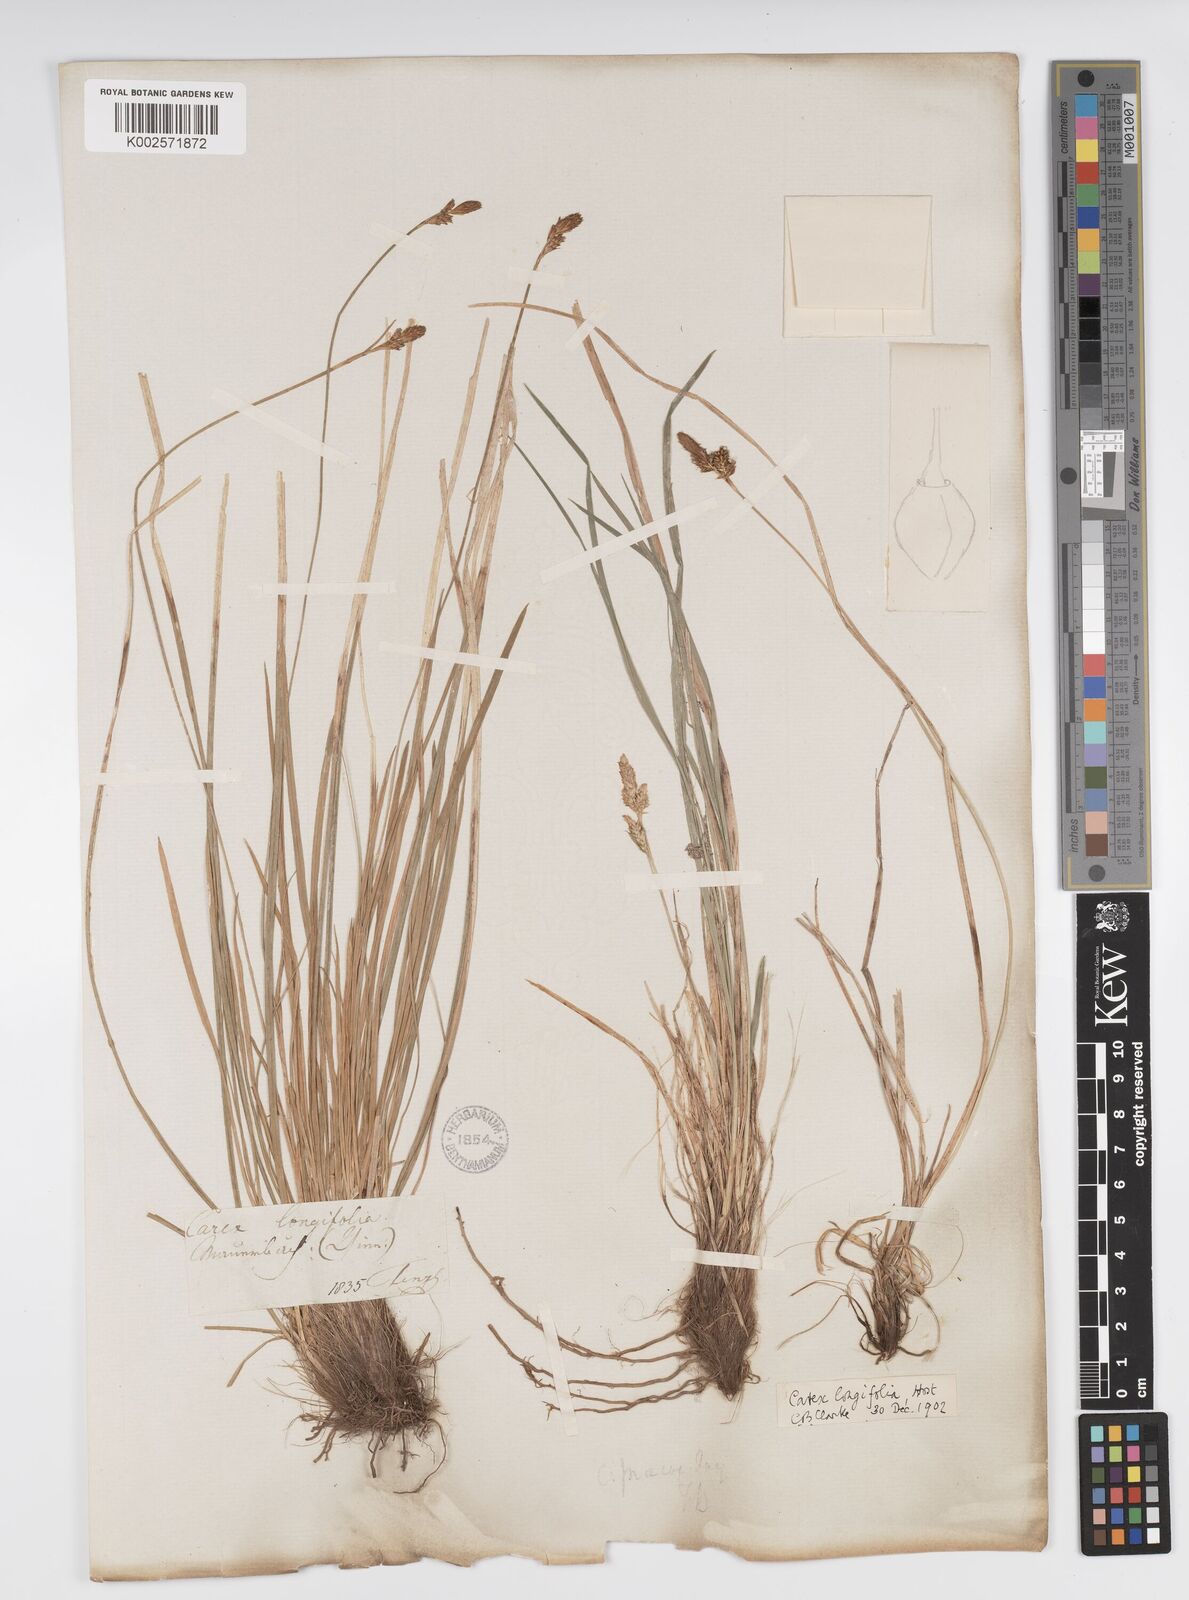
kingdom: Plantae
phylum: Tracheophyta
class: Liliopsida
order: Poales
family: Cyperaceae
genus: Carex
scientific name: Carex umbrosa
